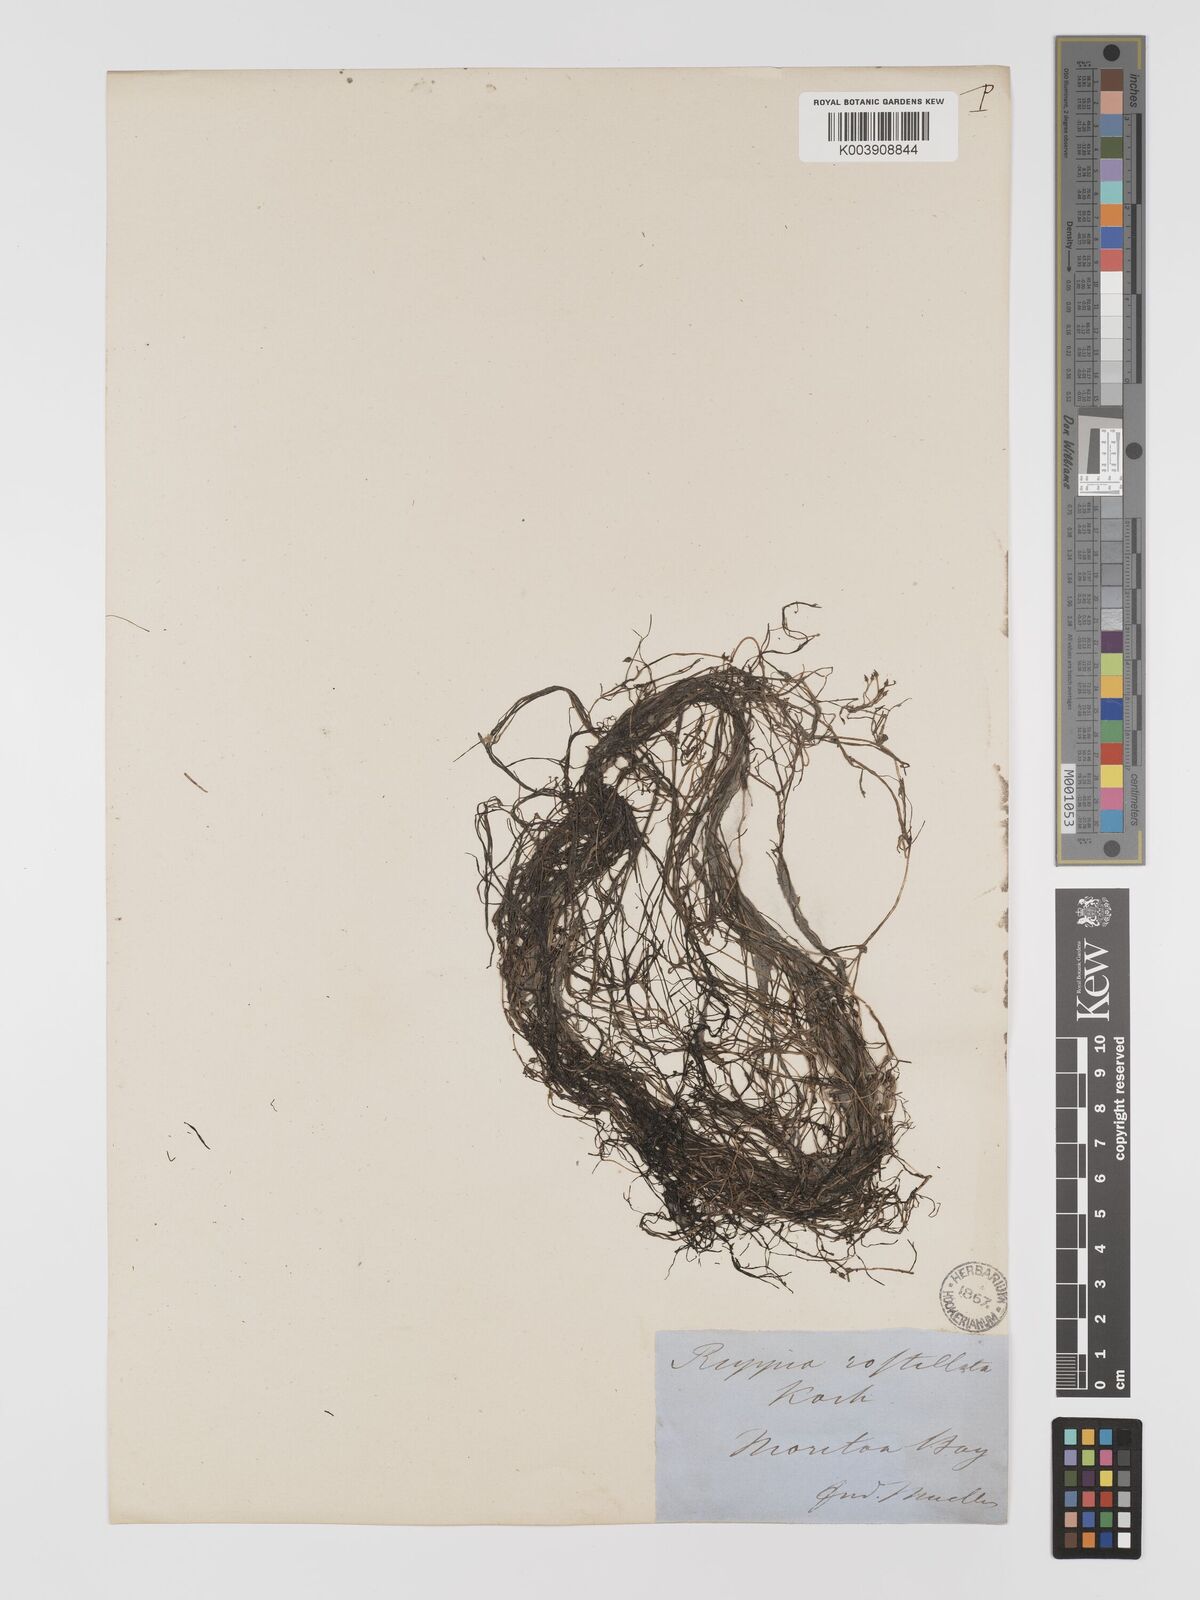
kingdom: Plantae
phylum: Tracheophyta
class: Liliopsida
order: Alismatales
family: Ruppiaceae
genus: Ruppia
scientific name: Ruppia maritima
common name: Beaked tasselweed
